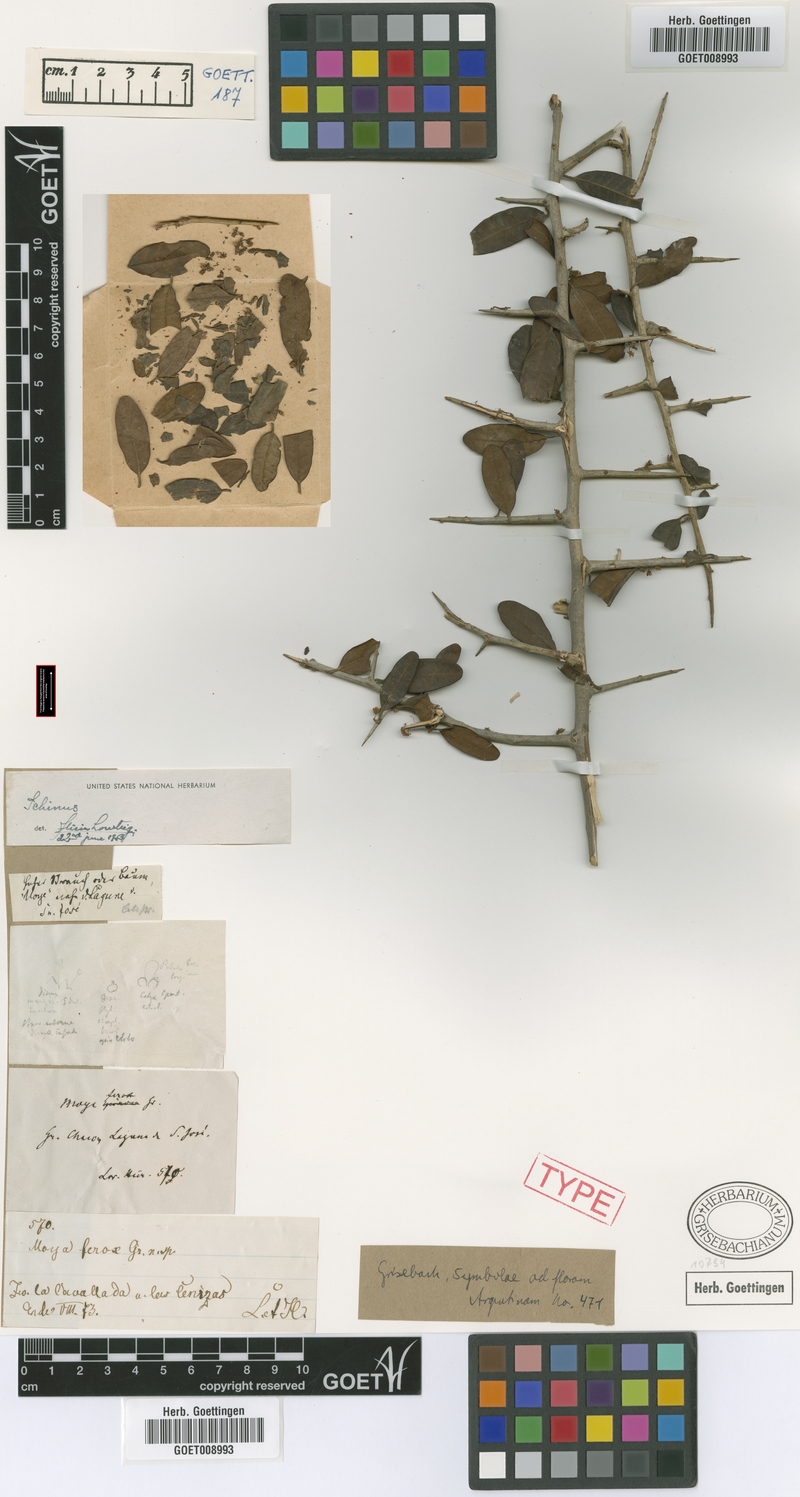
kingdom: Plantae
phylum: Tracheophyta
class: Magnoliopsida
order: Sapindales
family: Anacardiaceae
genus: Schinus
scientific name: Schinus myrtifolia
